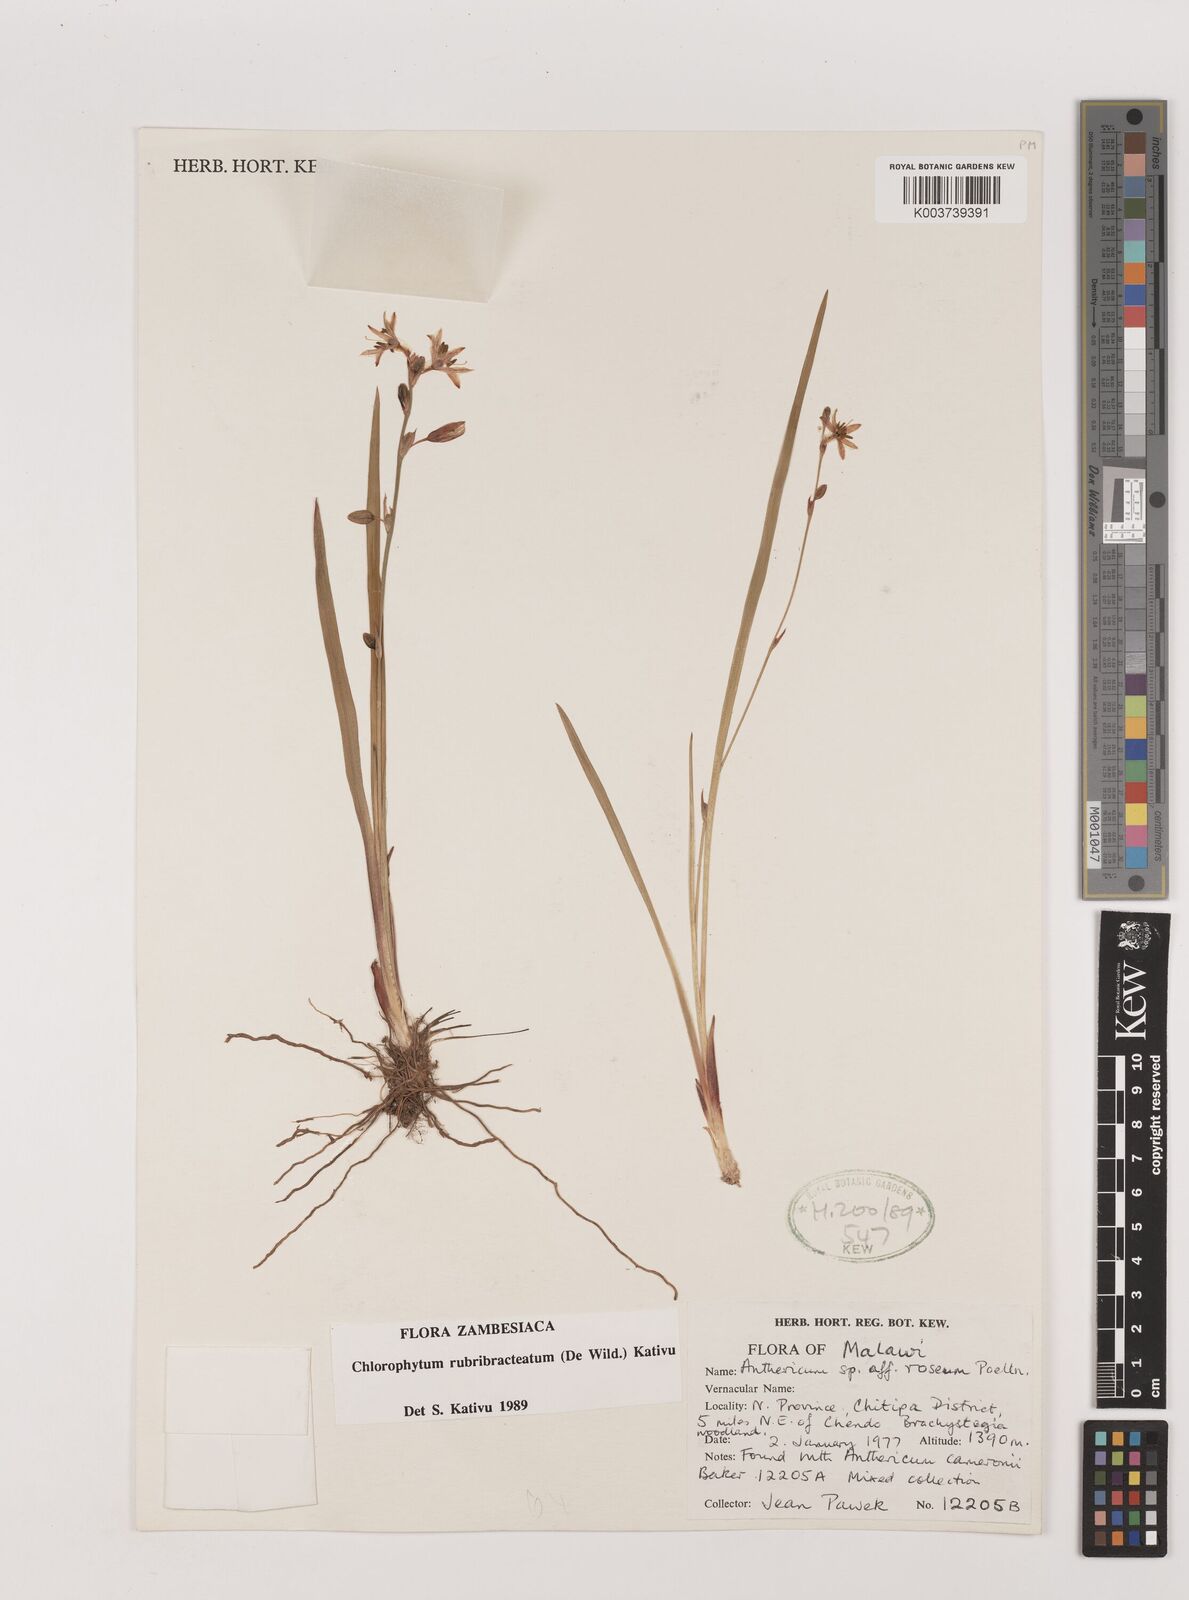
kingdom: Plantae
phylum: Tracheophyta
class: Liliopsida
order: Asparagales
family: Asparagaceae
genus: Chlorophytum
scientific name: Chlorophytum rubribracteatum
